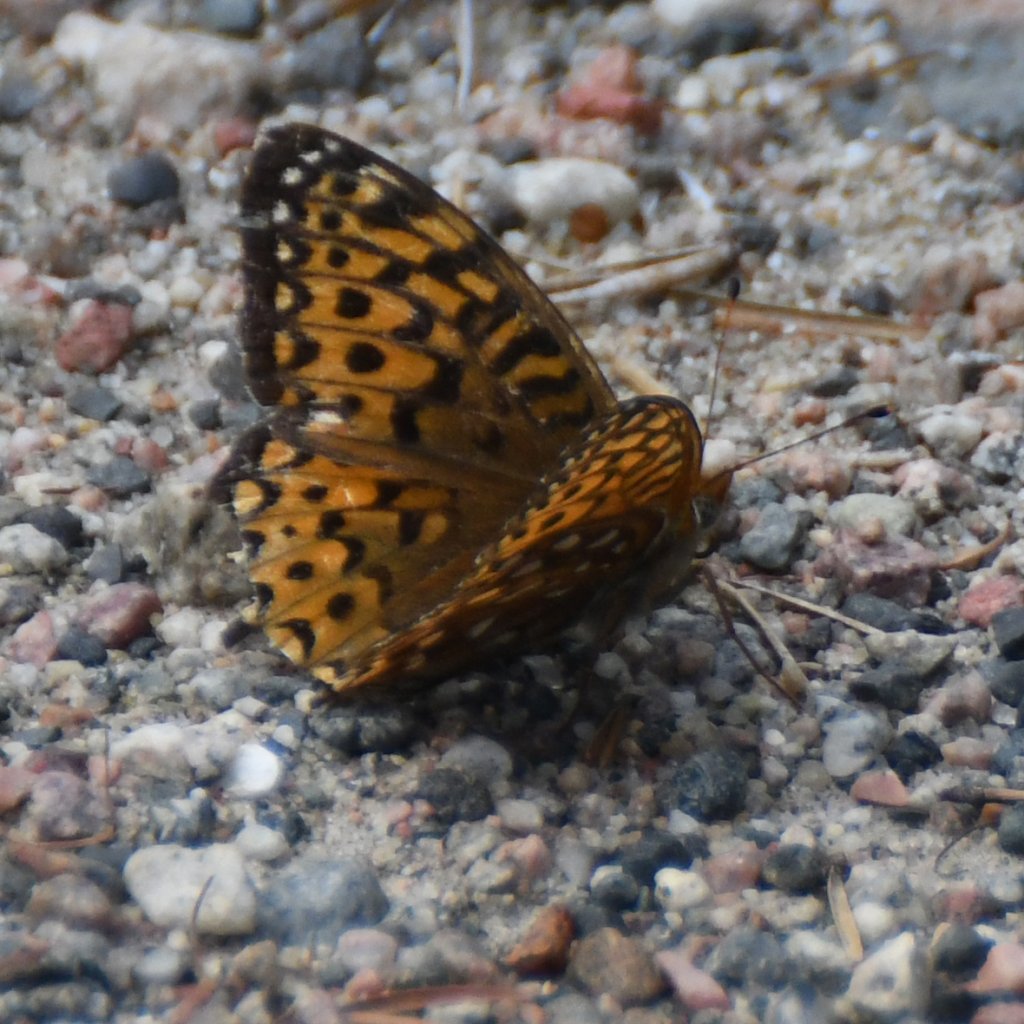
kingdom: Animalia
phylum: Arthropoda
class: Insecta
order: Lepidoptera
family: Nymphalidae
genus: Speyeria
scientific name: Speyeria atlantis
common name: Atlantis Fritillary
